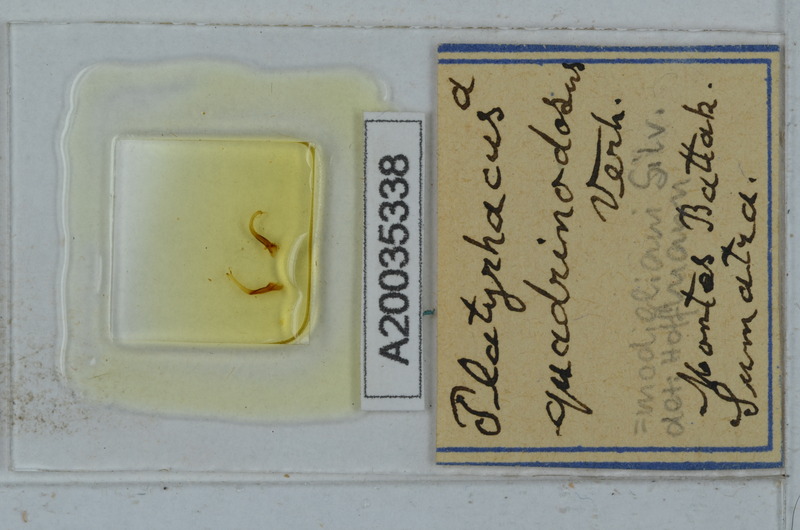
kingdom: Animalia
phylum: Arthropoda
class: Diplopoda
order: Polydesmida
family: Platyrhacidae
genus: Platyrhacus
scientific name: Platyrhacus
